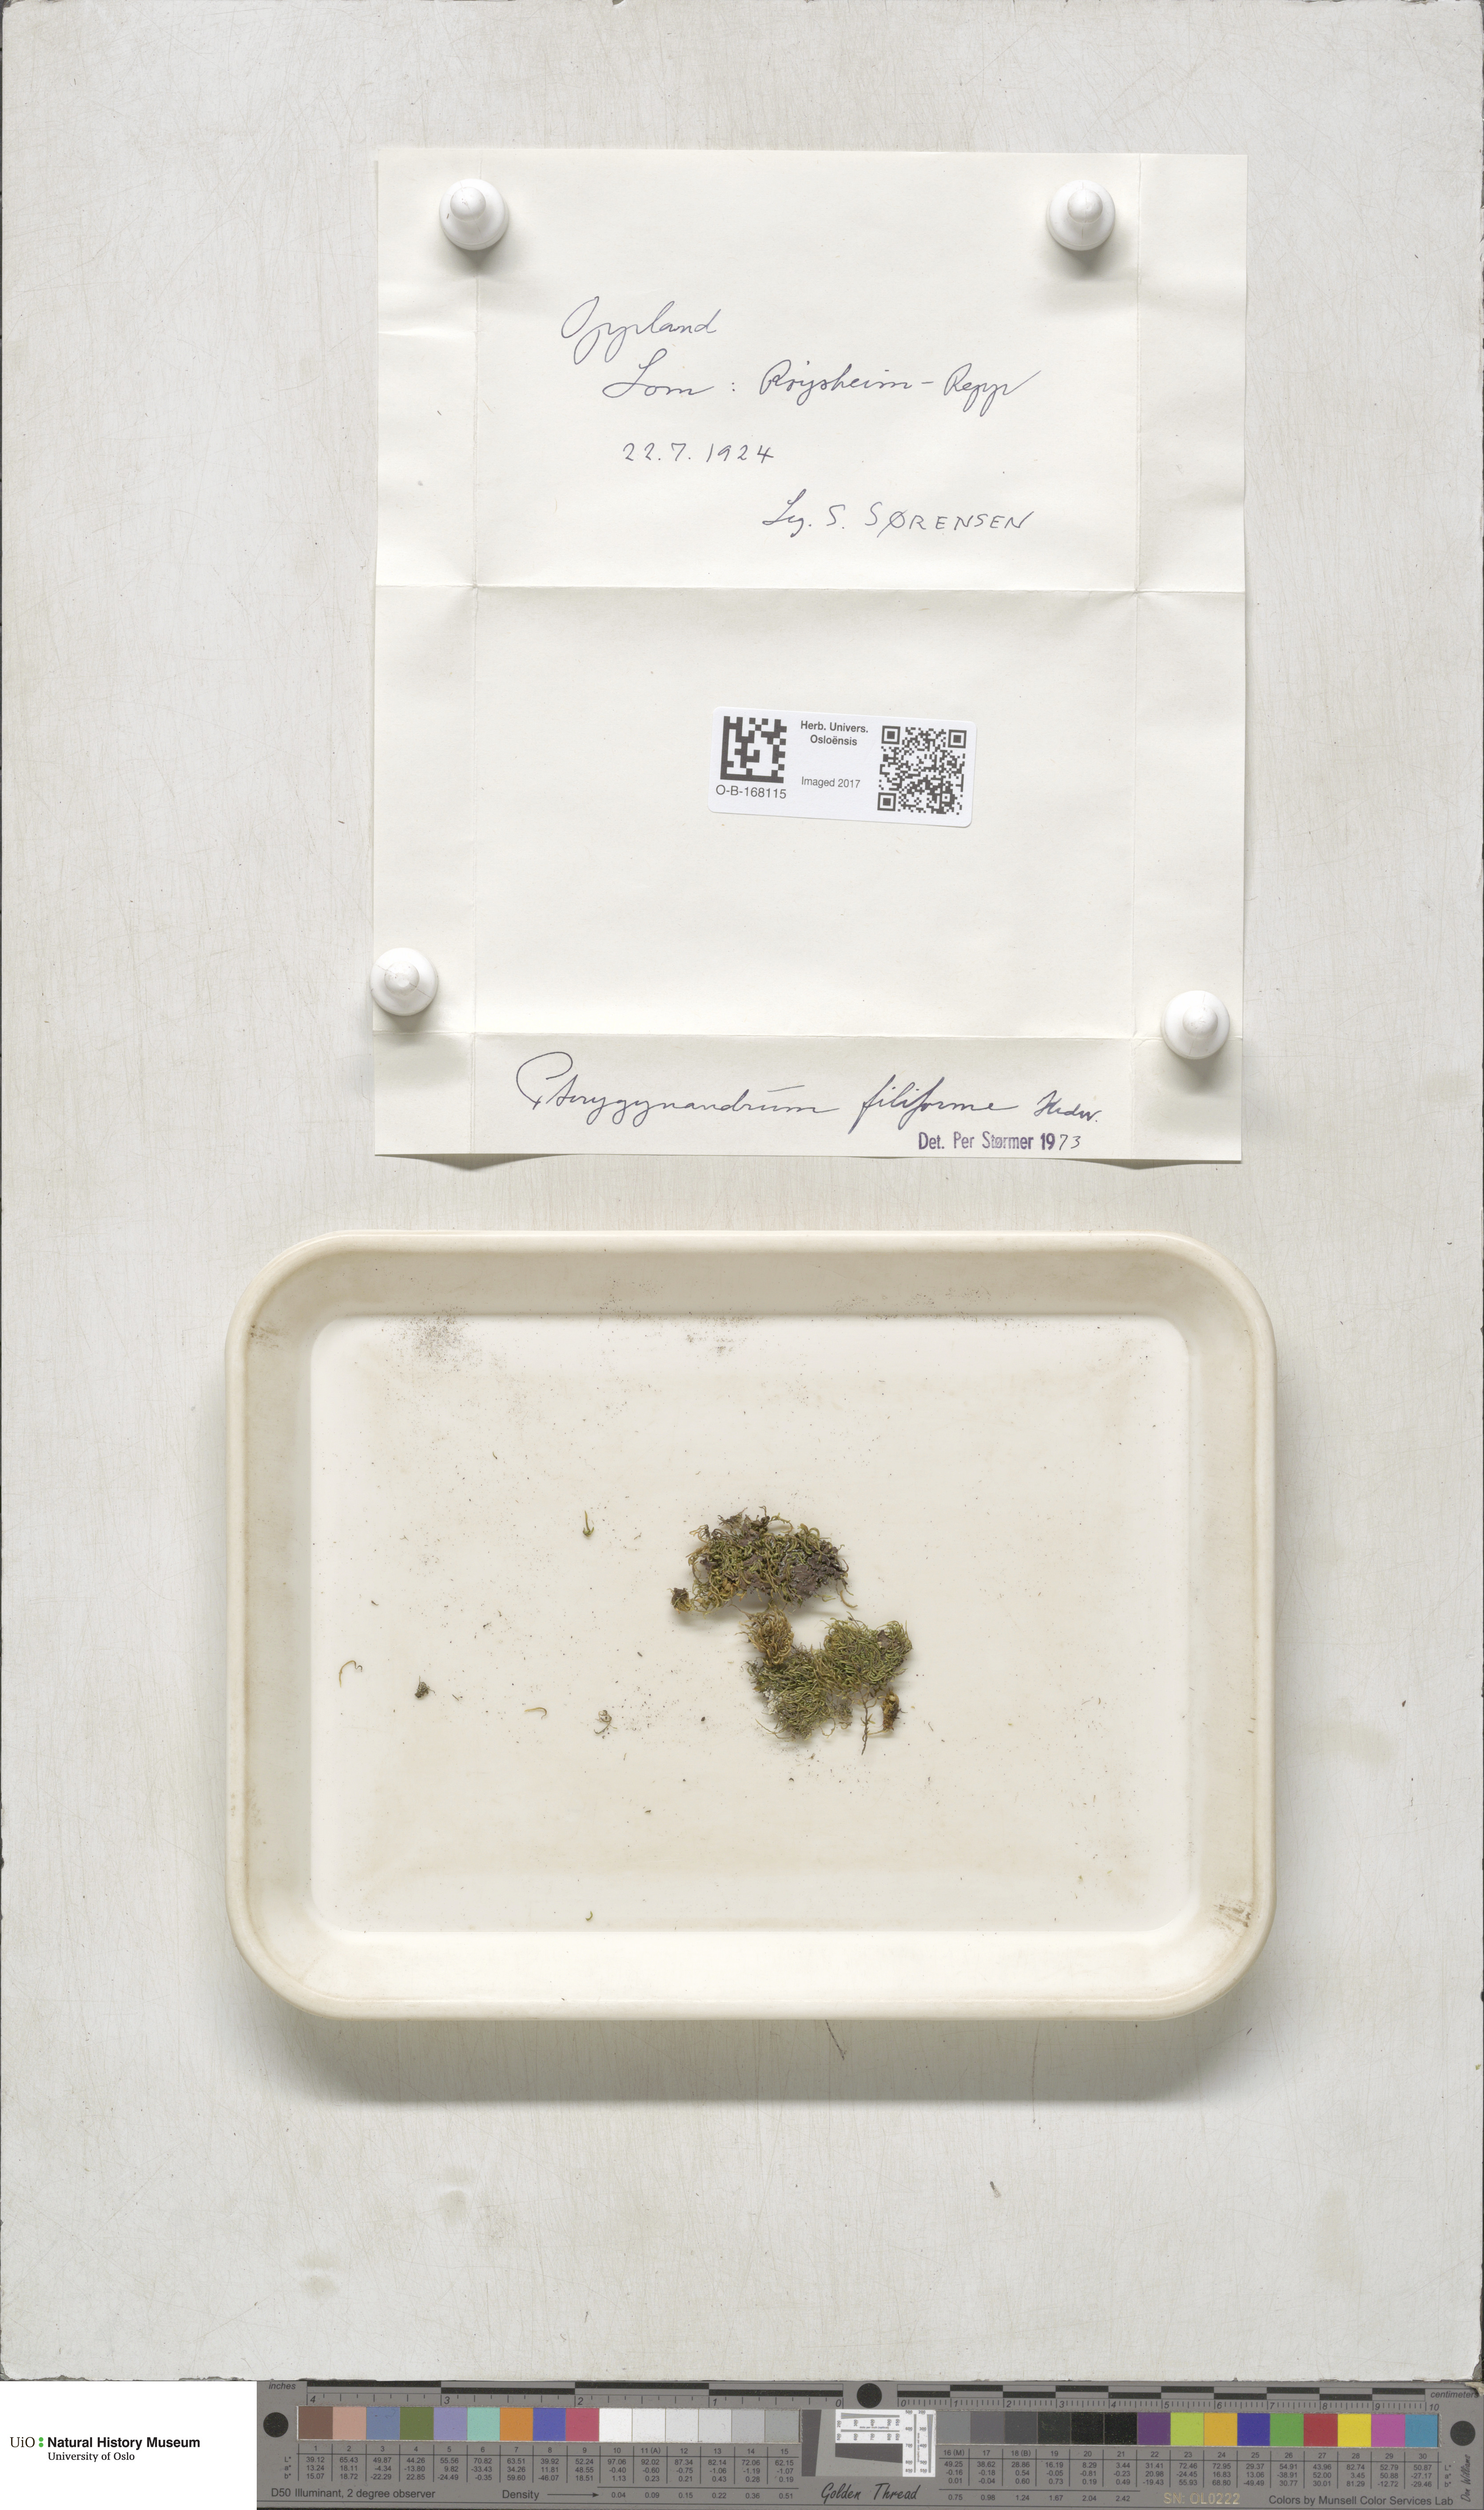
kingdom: Plantae
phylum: Bryophyta
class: Bryopsida
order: Hypnales
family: Pterigynandraceae
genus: Pterigynandrum
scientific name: Pterigynandrum filiforme
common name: Capillary wing moss
